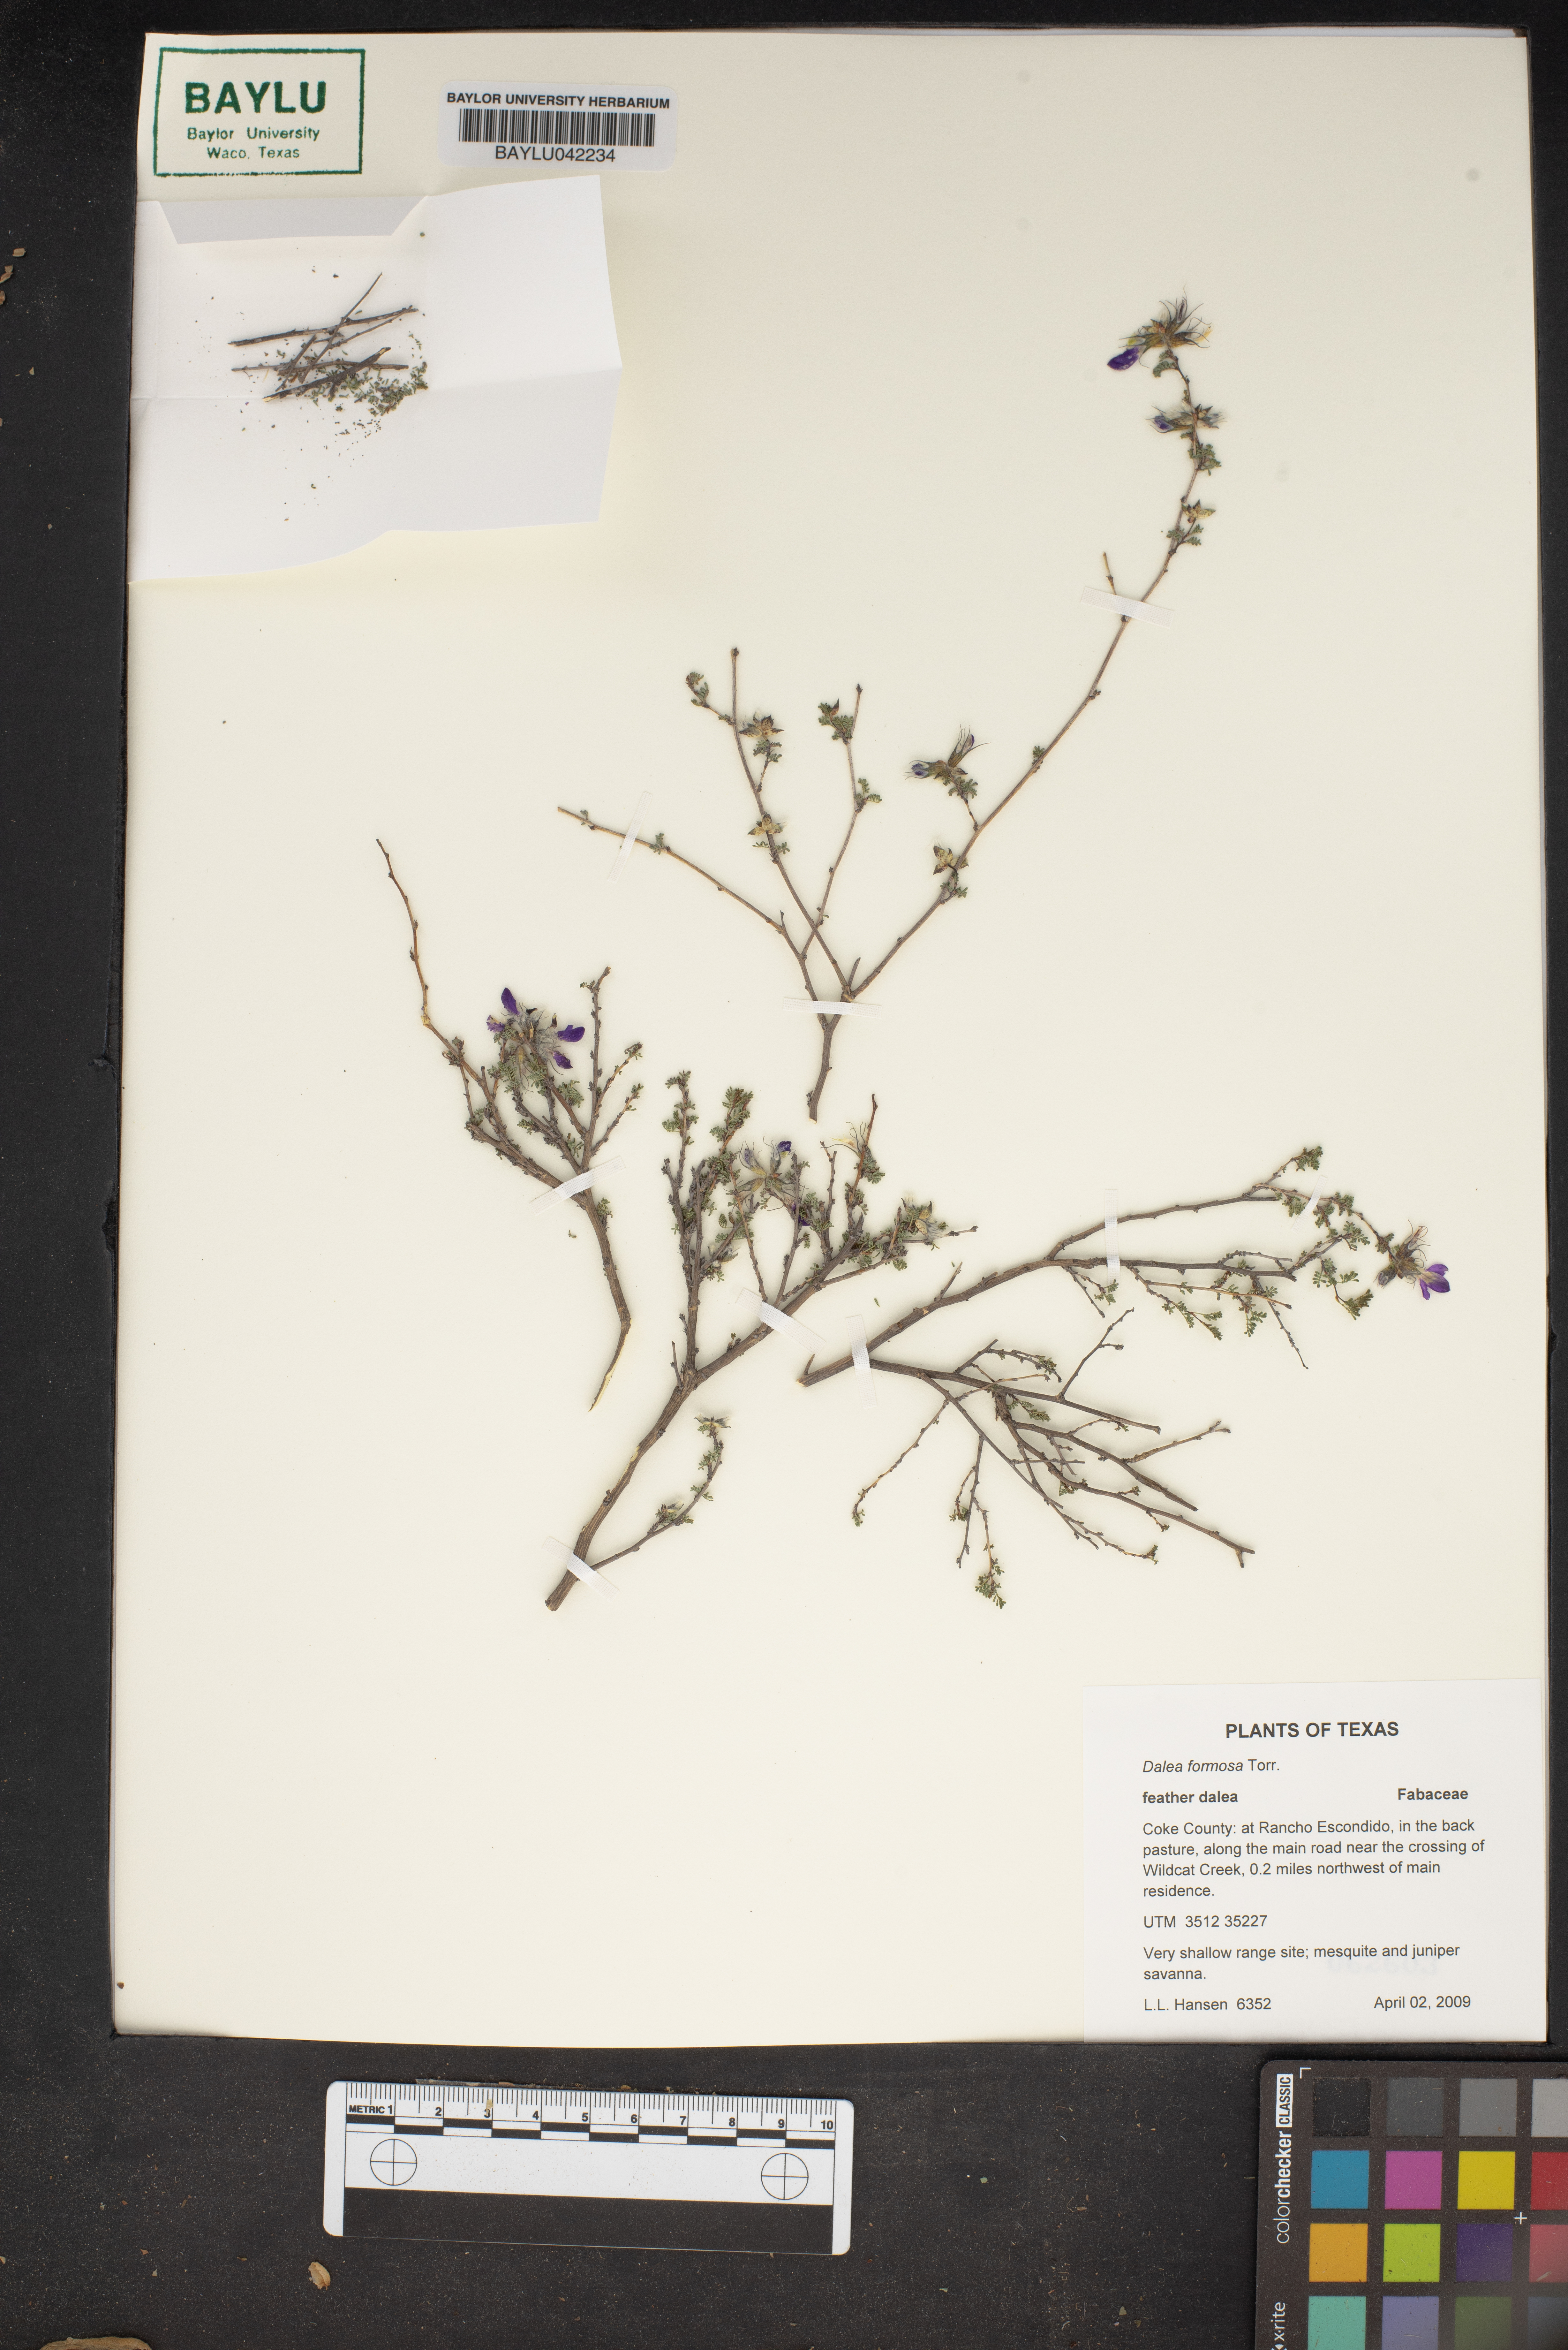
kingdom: Plantae
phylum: Tracheophyta
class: Magnoliopsida
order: Fabales
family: Fabaceae
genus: Dalea
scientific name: Dalea formosa
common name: Feather-plume dalea
